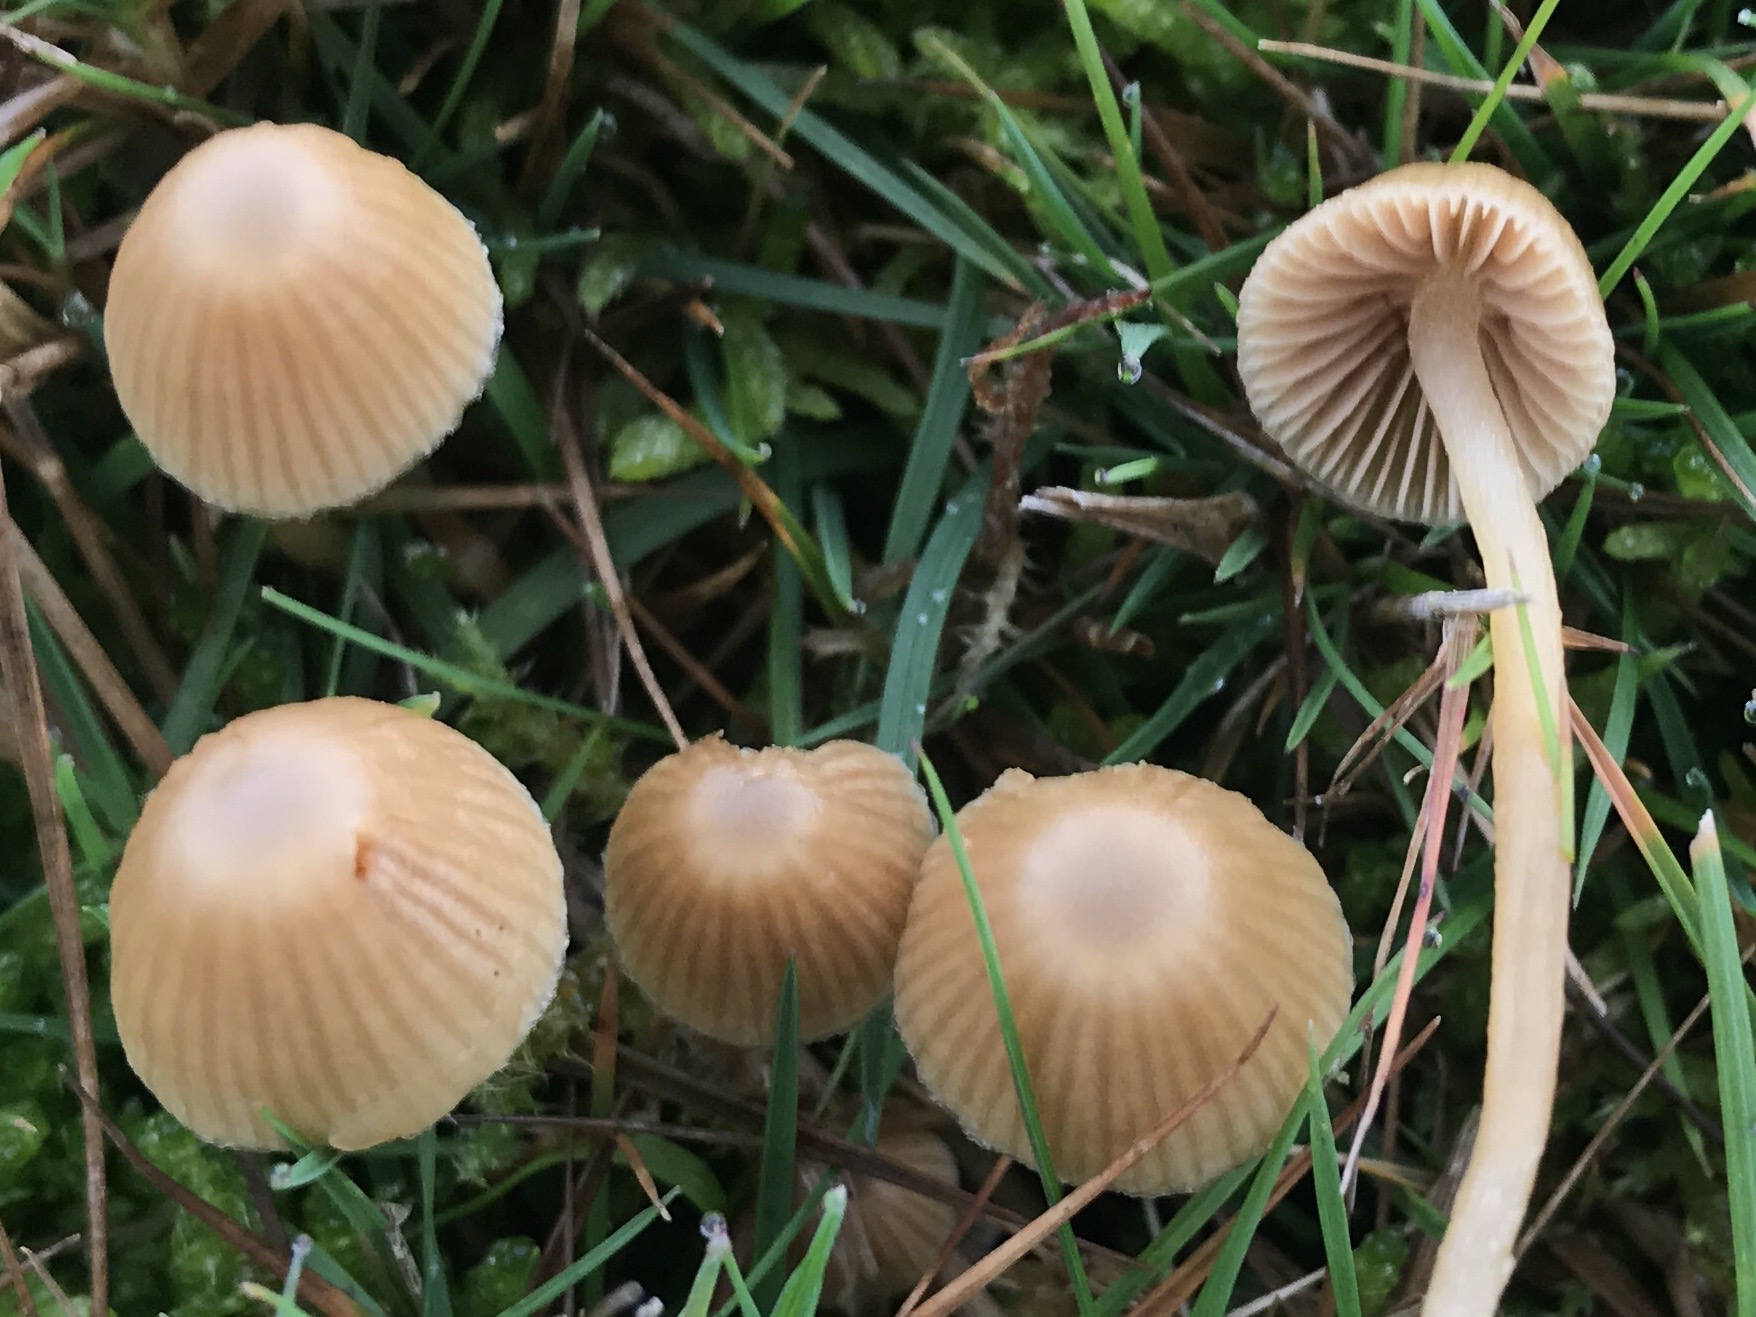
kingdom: Fungi
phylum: Basidiomycota
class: Agaricomycetes
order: Agaricales
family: Hymenogastraceae
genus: Galerina
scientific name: Galerina
